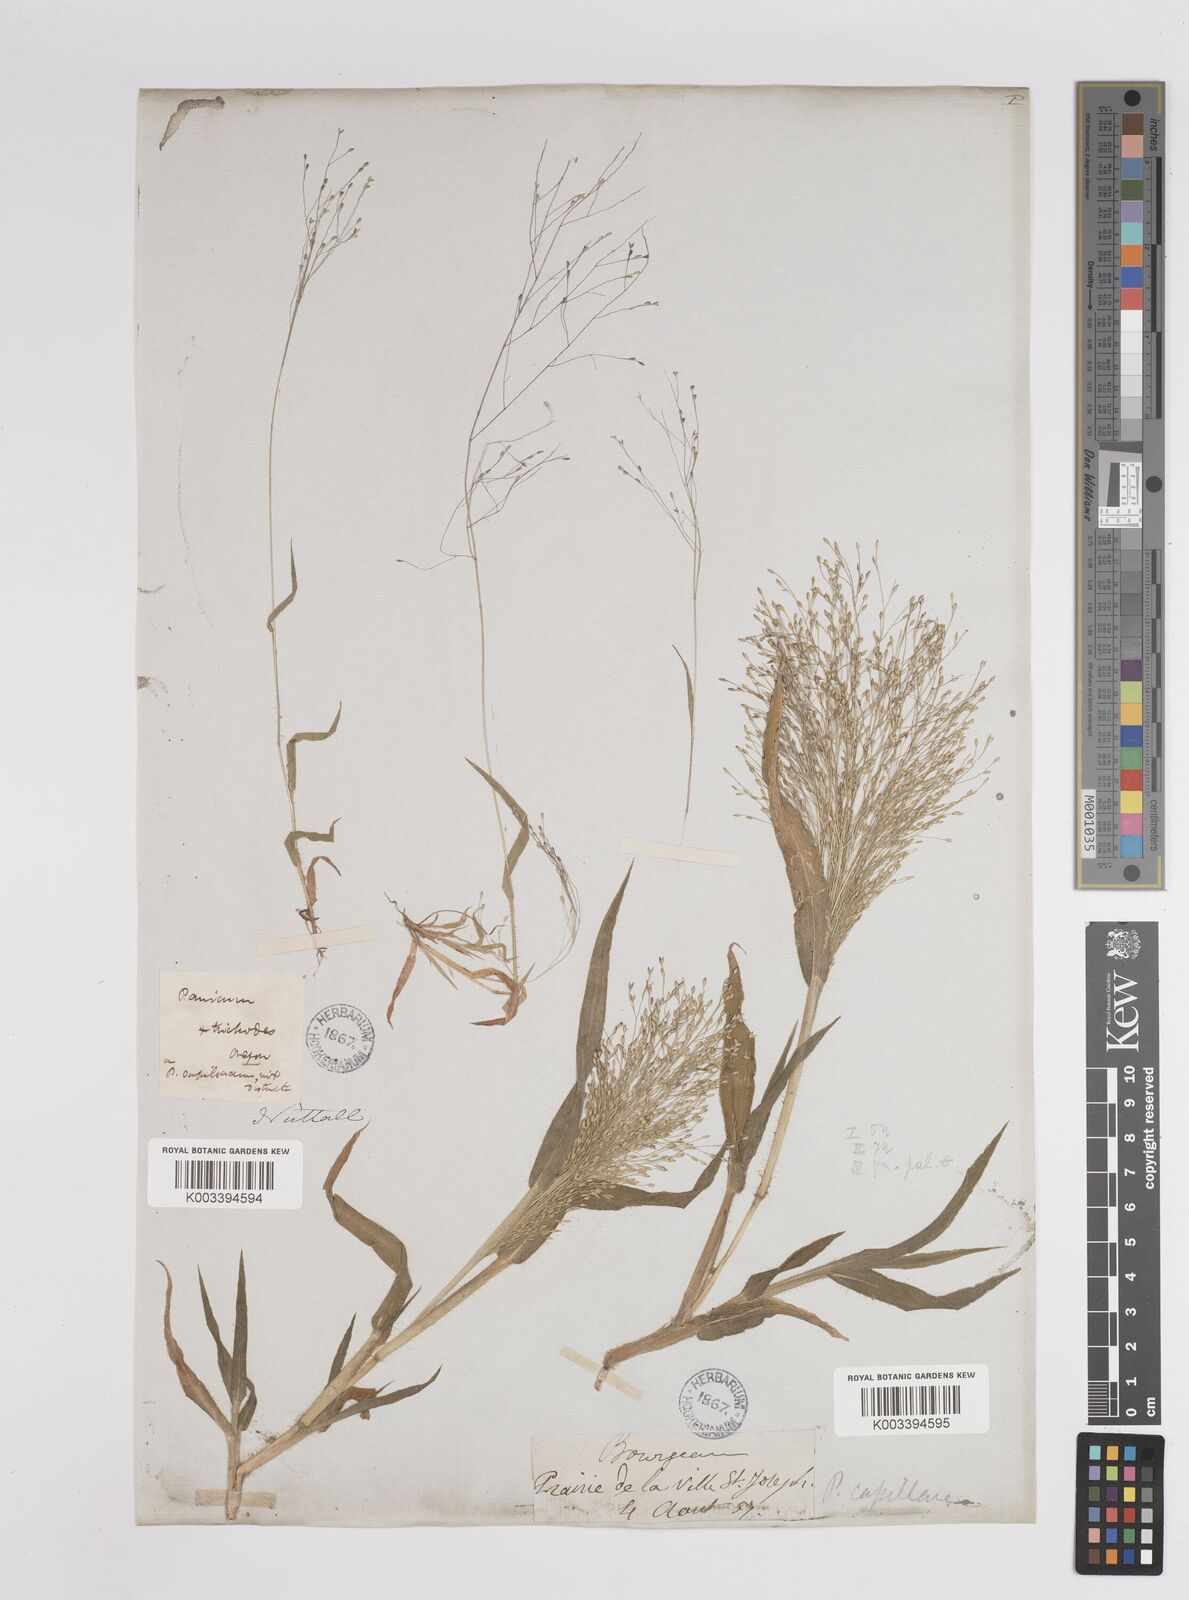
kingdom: Plantae
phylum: Tracheophyta
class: Liliopsida
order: Poales
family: Poaceae
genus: Panicum
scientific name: Panicum capillare
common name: Witch-grass
